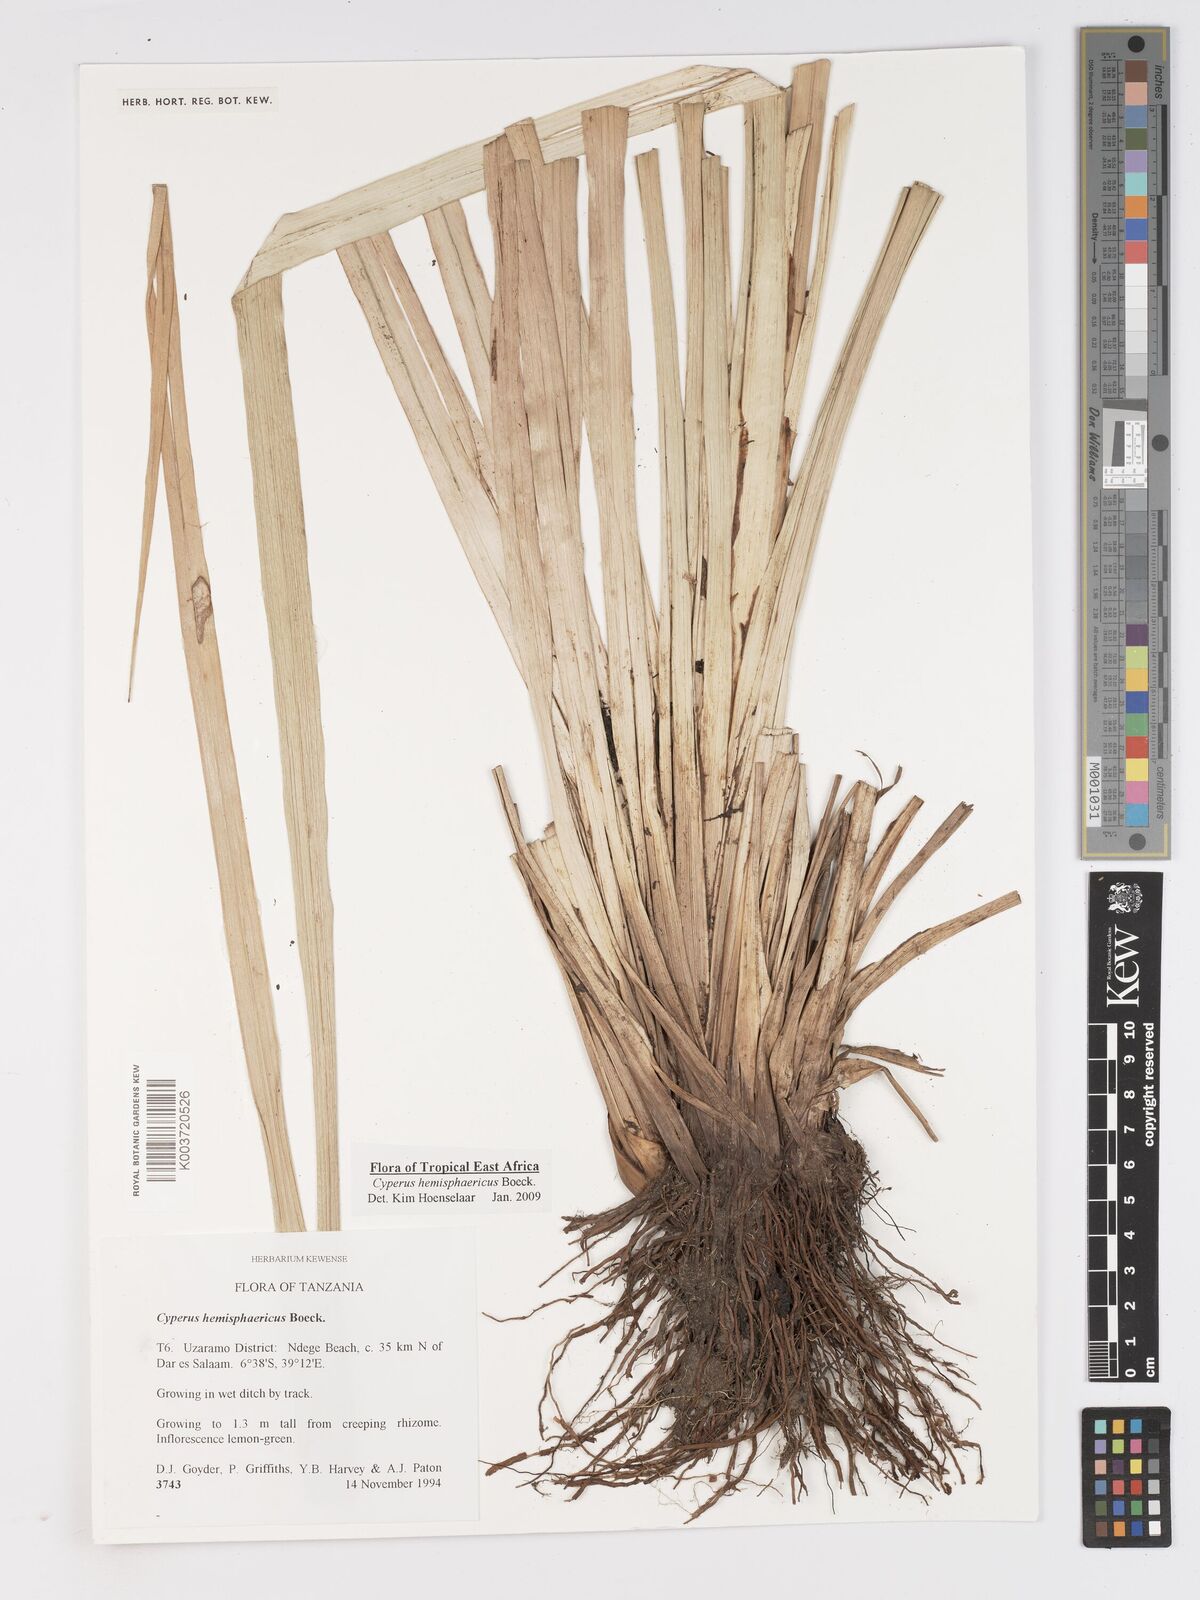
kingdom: Plantae
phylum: Tracheophyta
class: Liliopsida
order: Poales
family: Cyperaceae
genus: Cyperus
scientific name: Cyperus hemisphaericus
